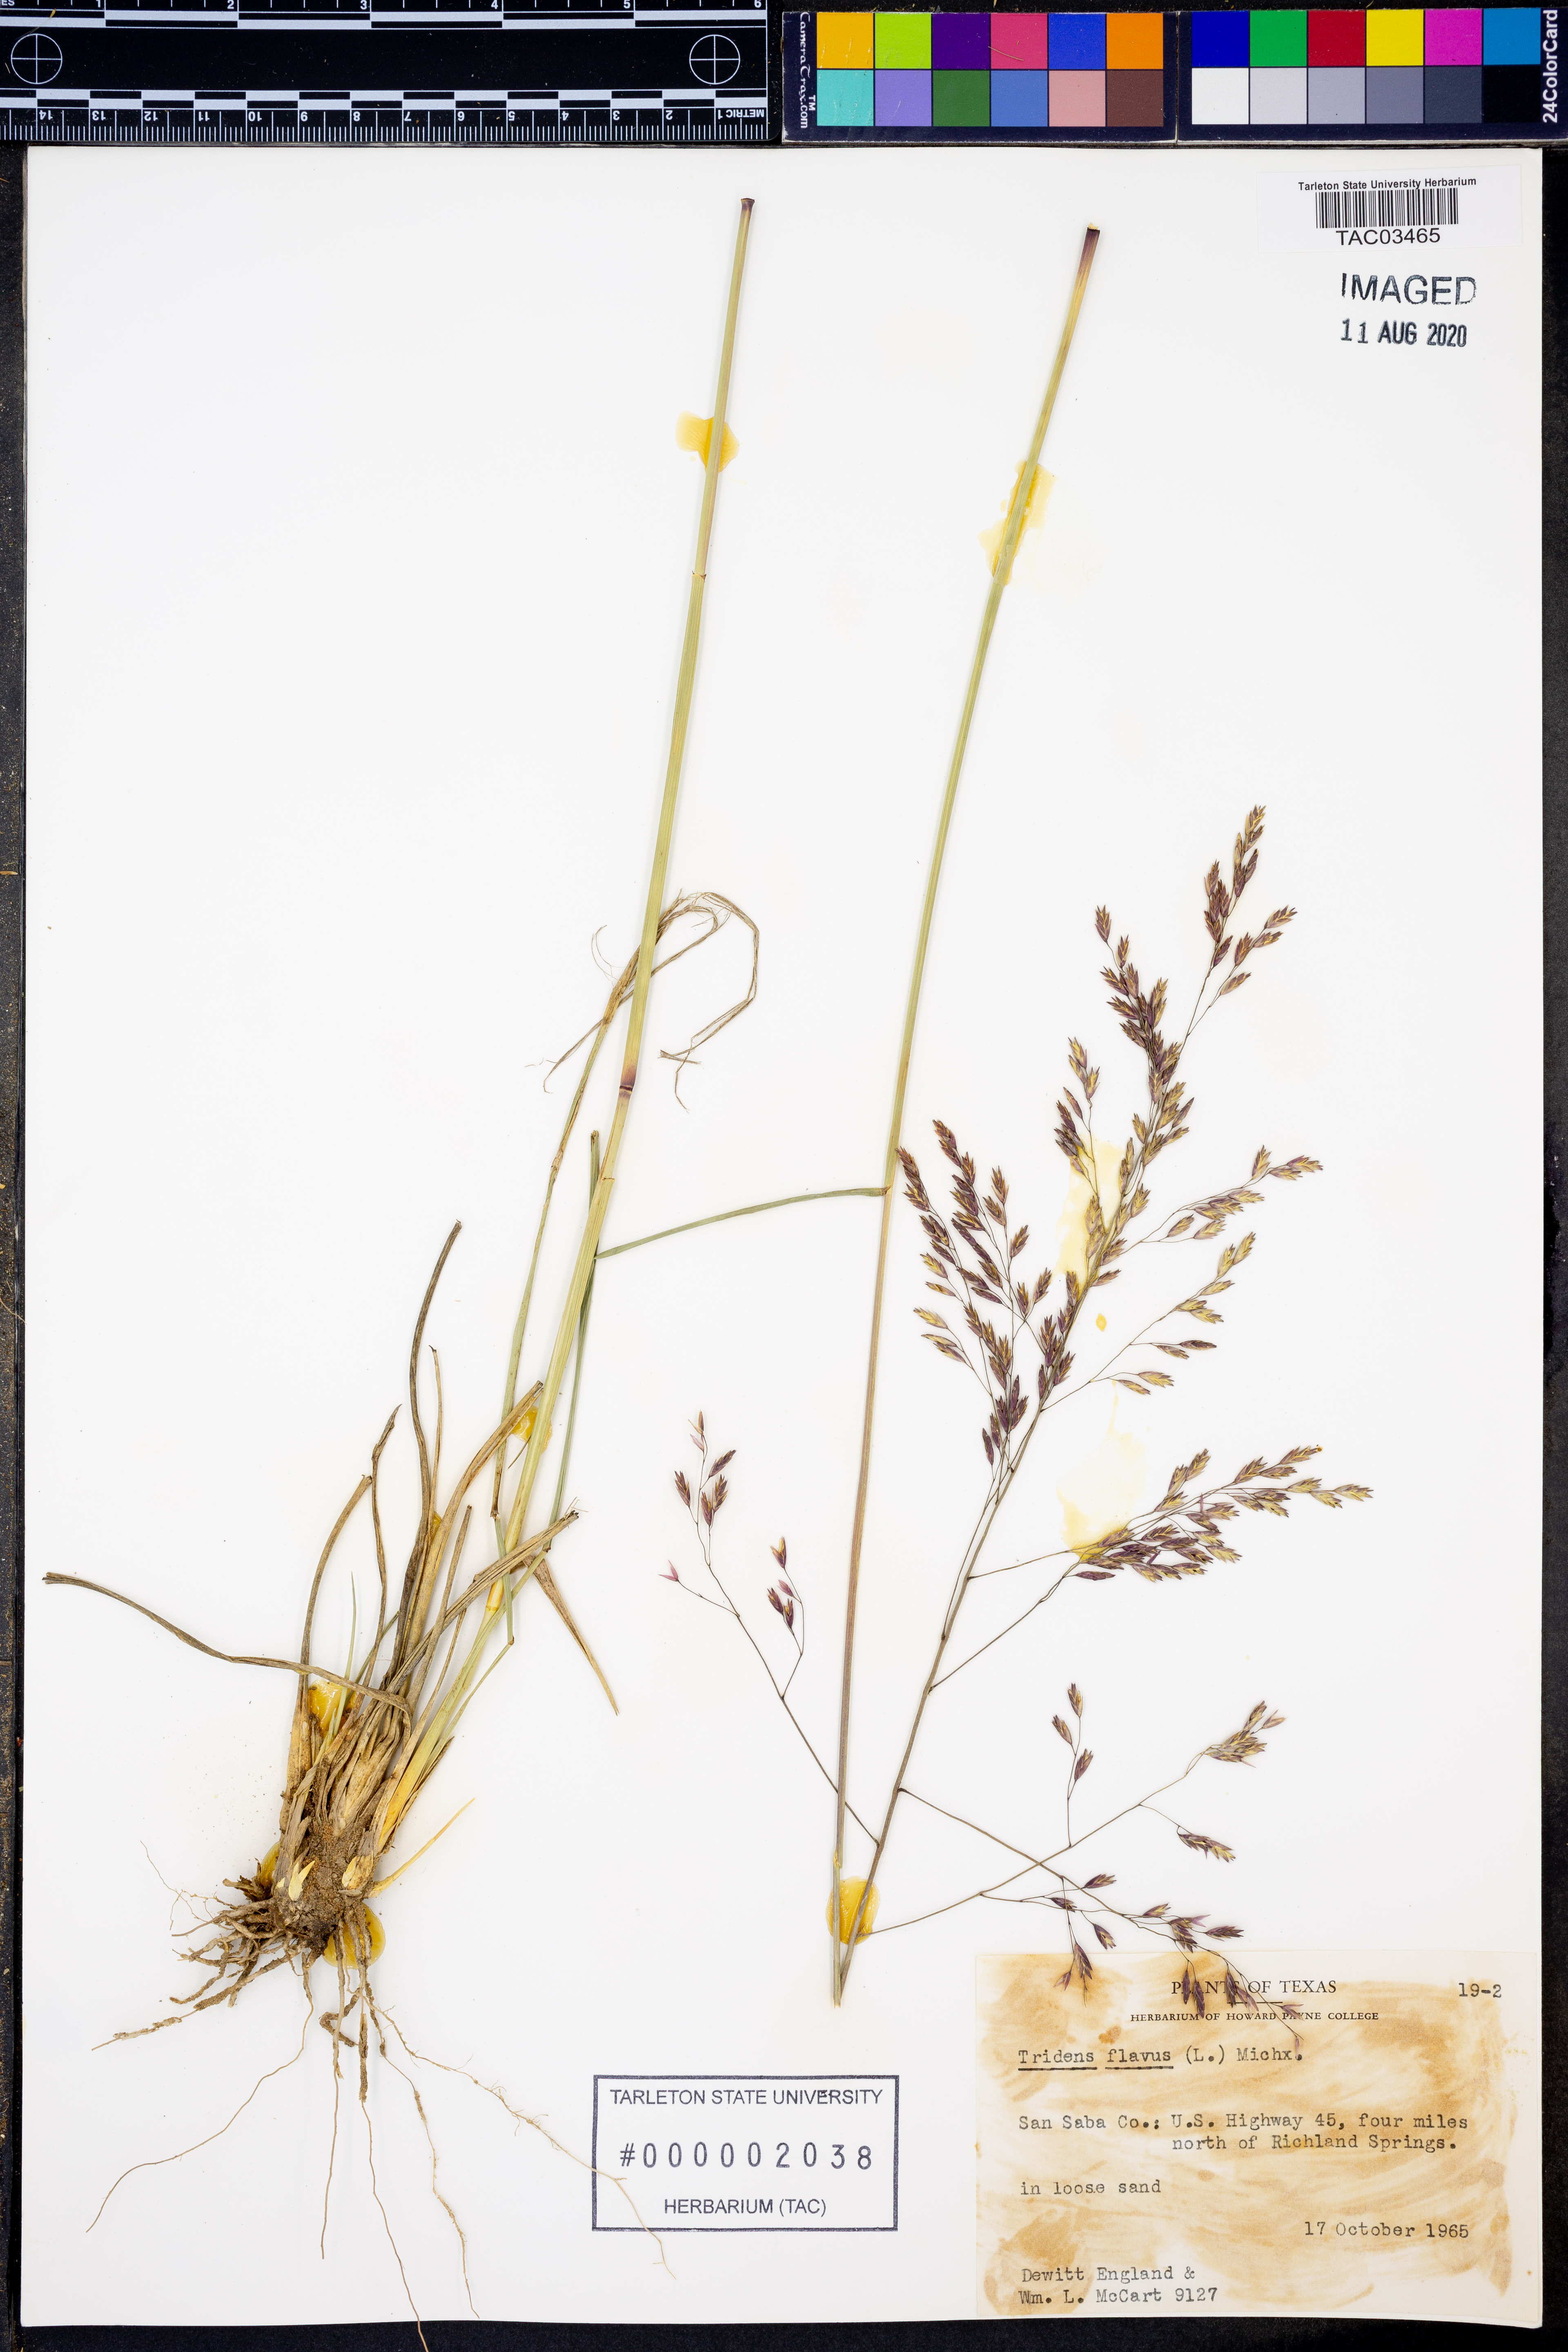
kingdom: Plantae
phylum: Tracheophyta
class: Liliopsida
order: Poales
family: Poaceae
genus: Tridens
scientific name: Tridens flavus
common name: Purpletop
